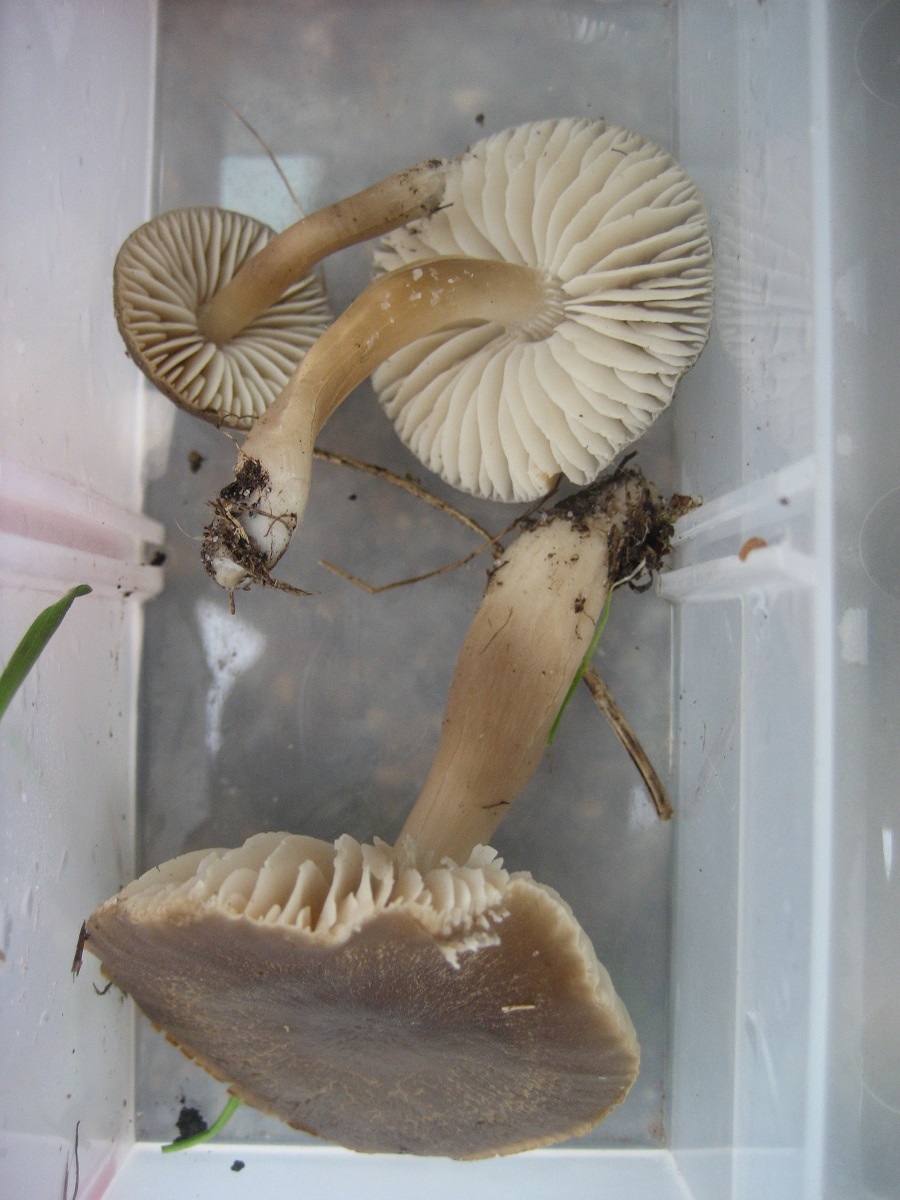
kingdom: Fungi
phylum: Basidiomycota
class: Agaricomycetes
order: Agaricales
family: Hygrophoraceae
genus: Neohygrocybe
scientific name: Neohygrocybe nitrata
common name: stinkende vokshat
